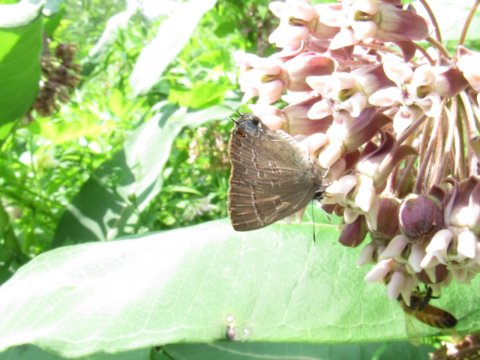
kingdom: Animalia
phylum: Arthropoda
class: Insecta
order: Lepidoptera
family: Lycaenidae
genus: Satyrium
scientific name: Satyrium calanus
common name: Banded Hairstreak
